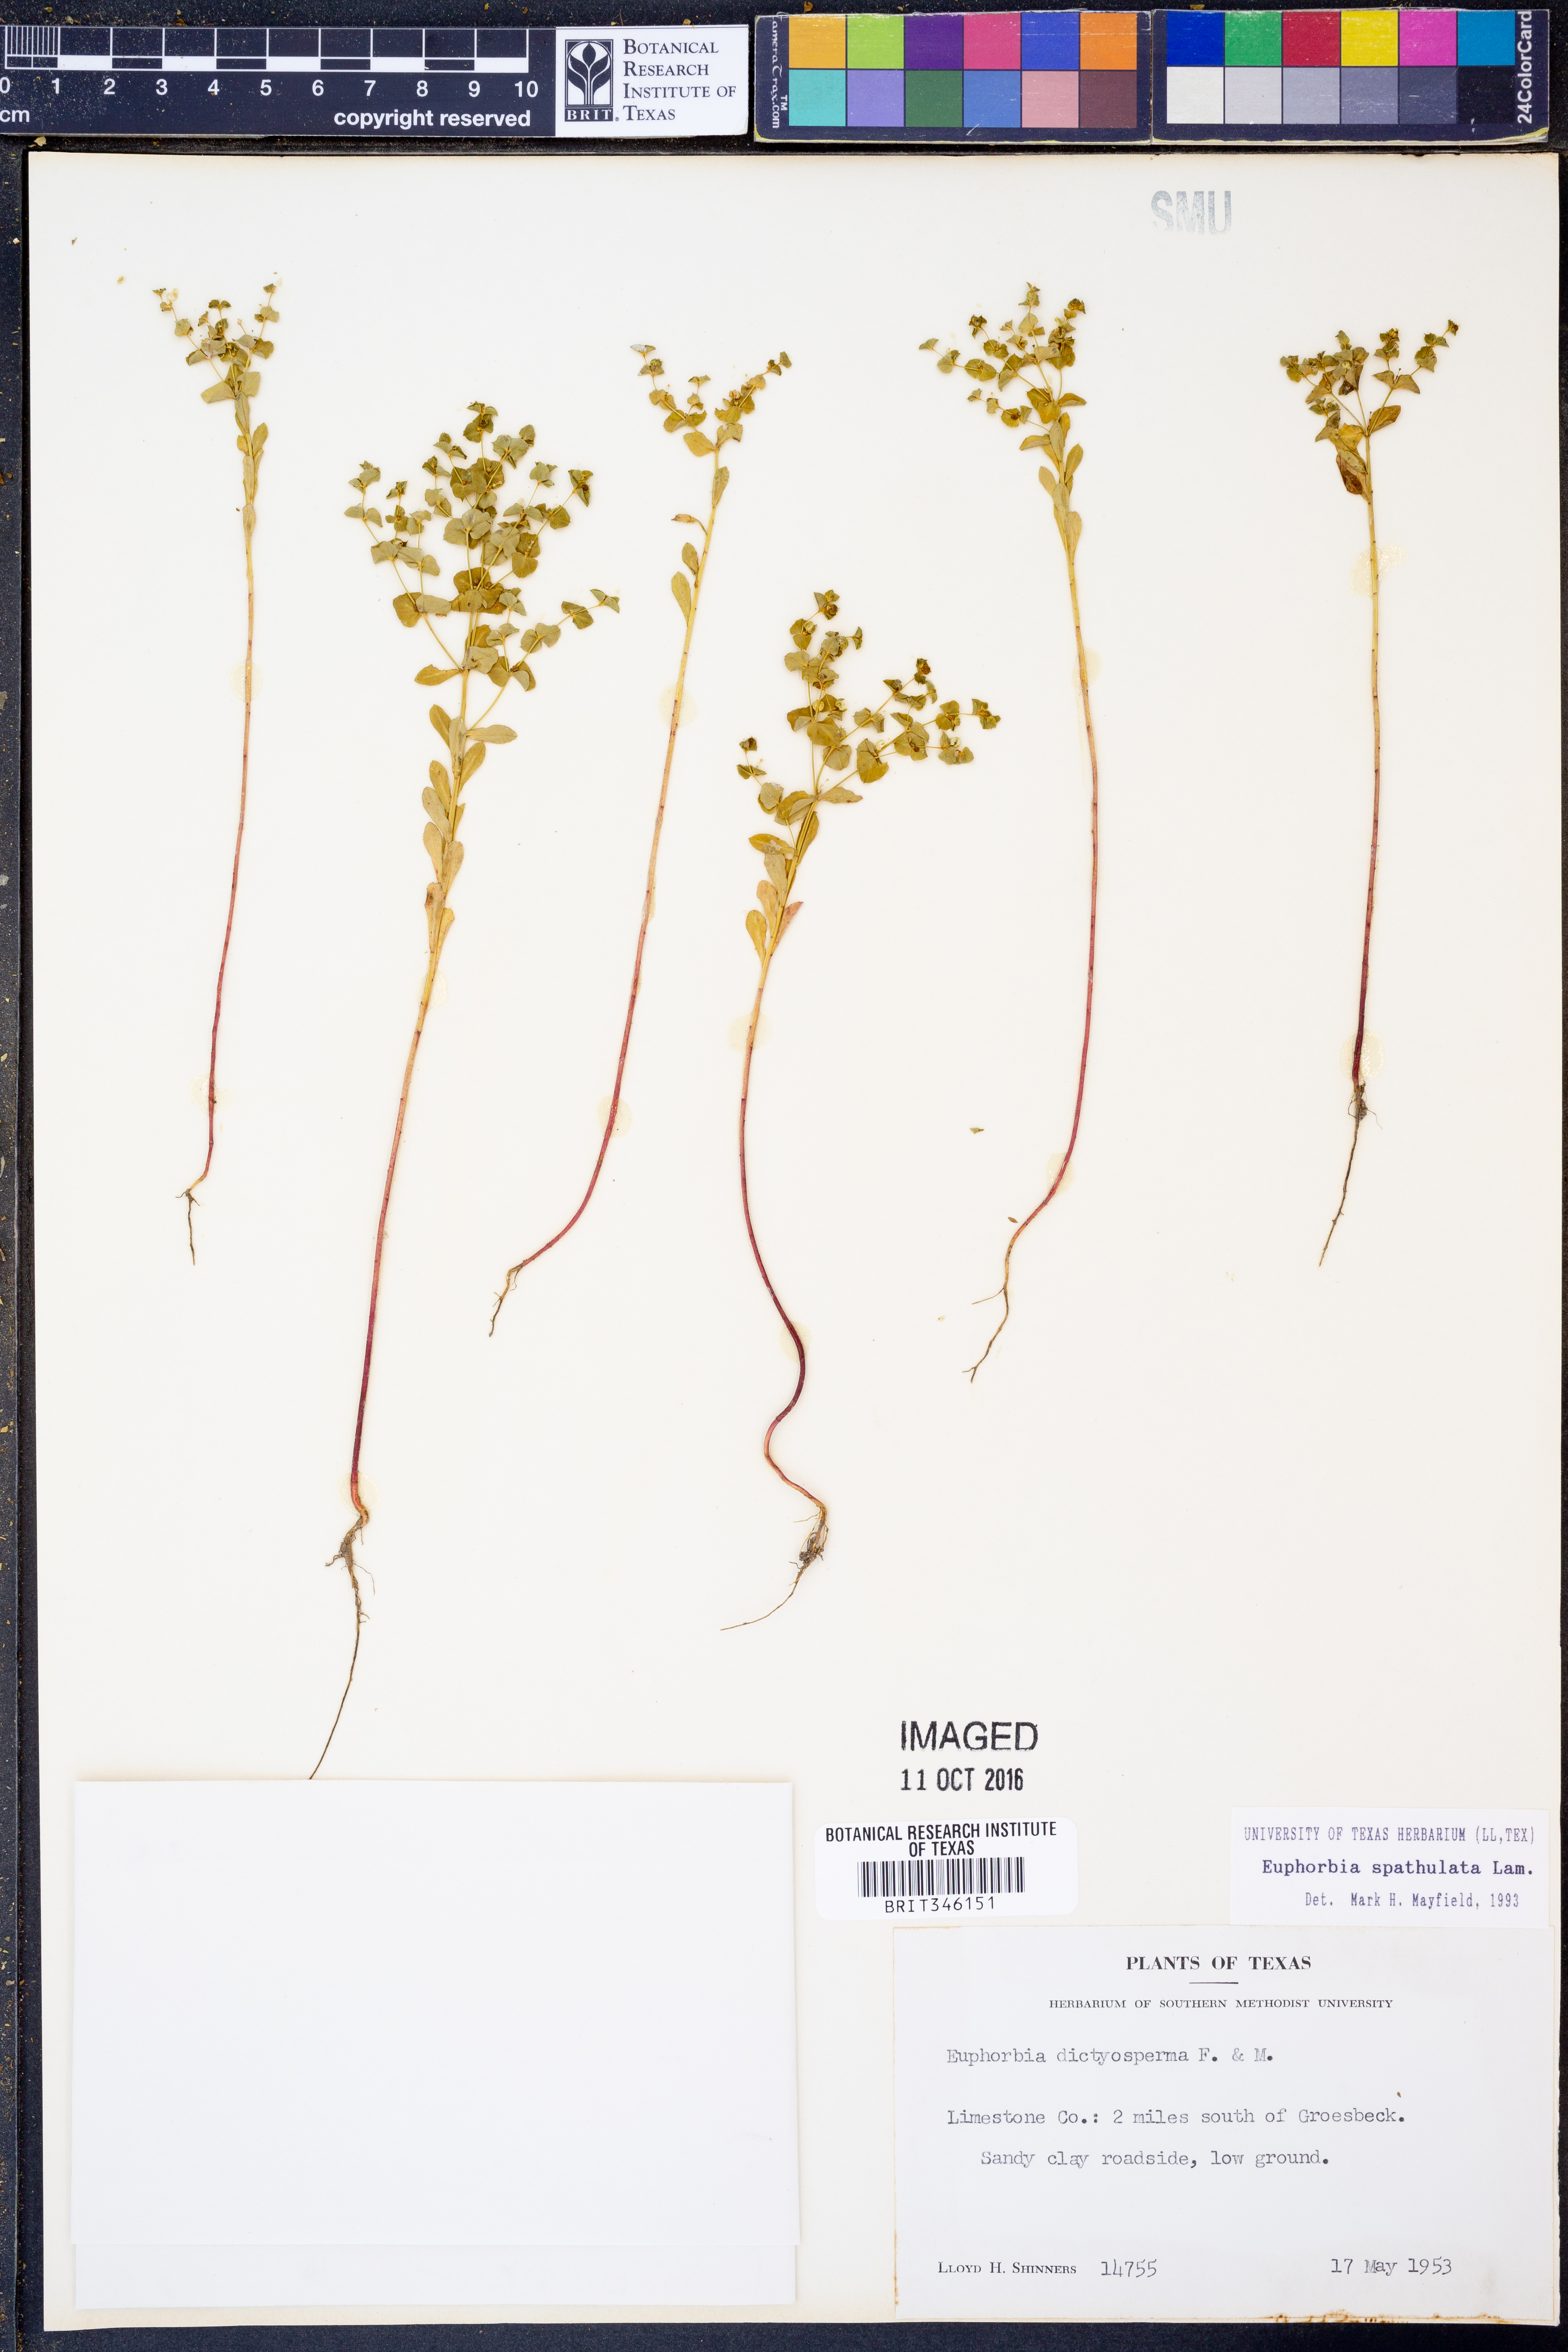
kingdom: Plantae
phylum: Tracheophyta
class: Magnoliopsida
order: Malpighiales
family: Euphorbiaceae
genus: Euphorbia
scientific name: Euphorbia spathulata
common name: Blunt spurge
